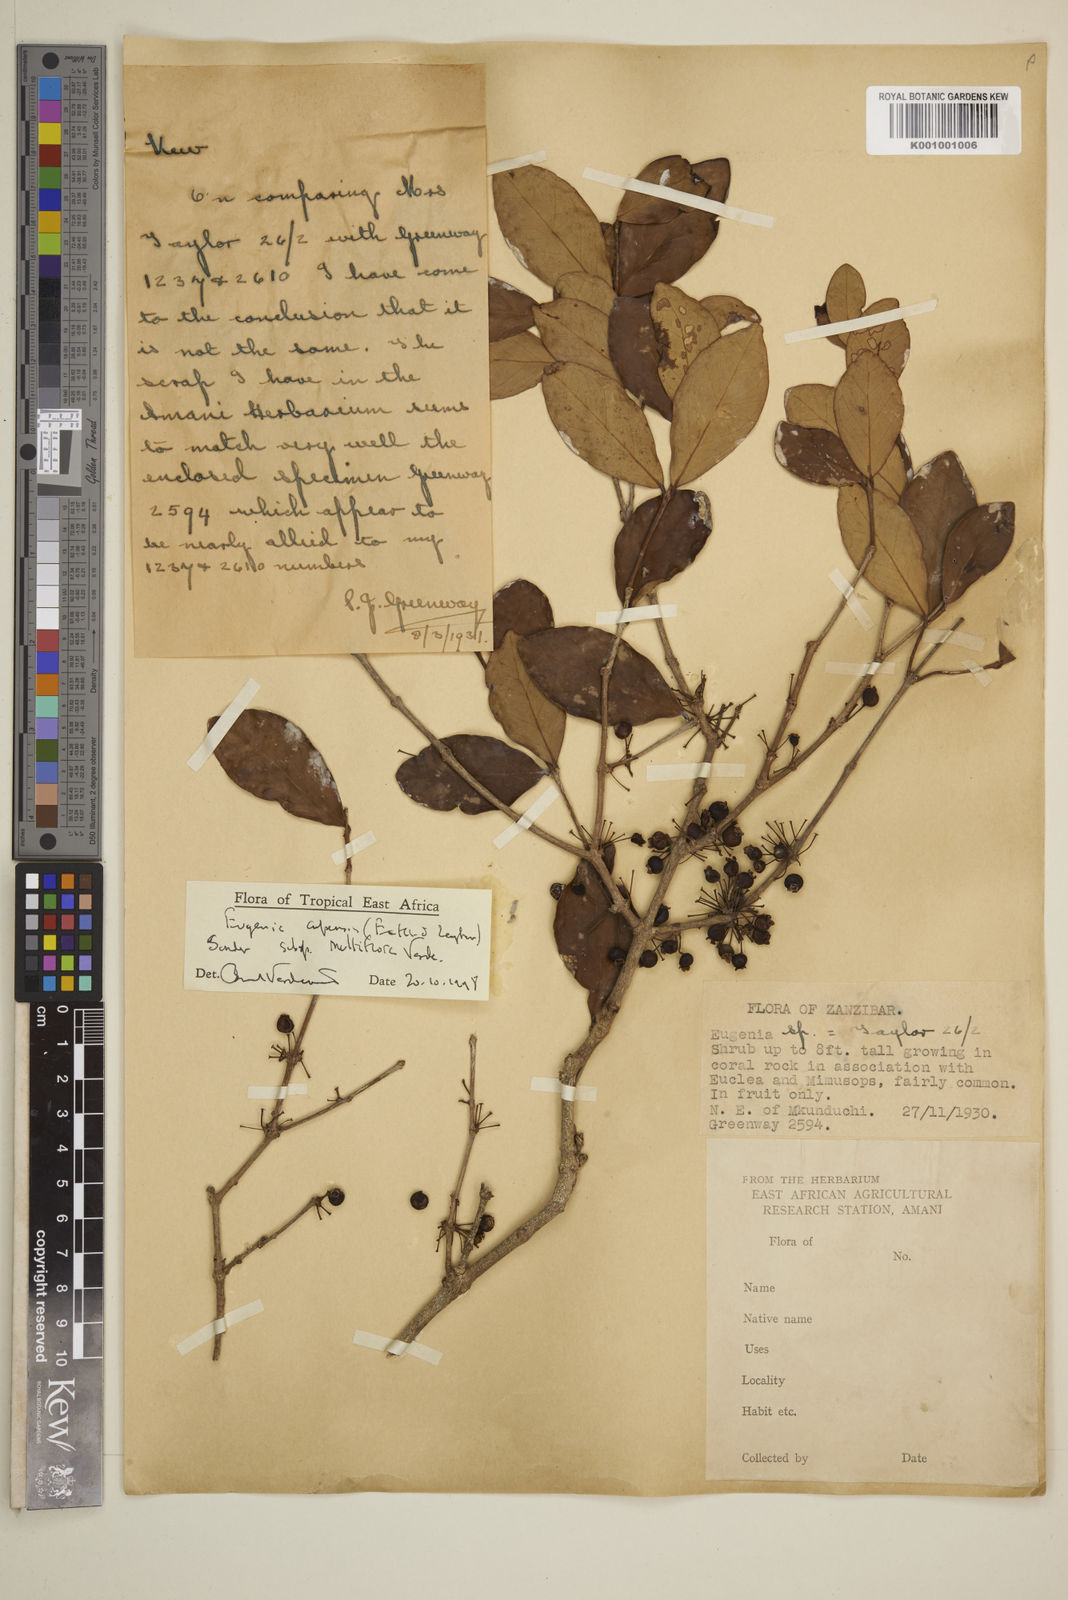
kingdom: Plantae
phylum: Tracheophyta
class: Magnoliopsida
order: Myrtales
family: Myrtaceae
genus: Eugenia
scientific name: Eugenia capensis
